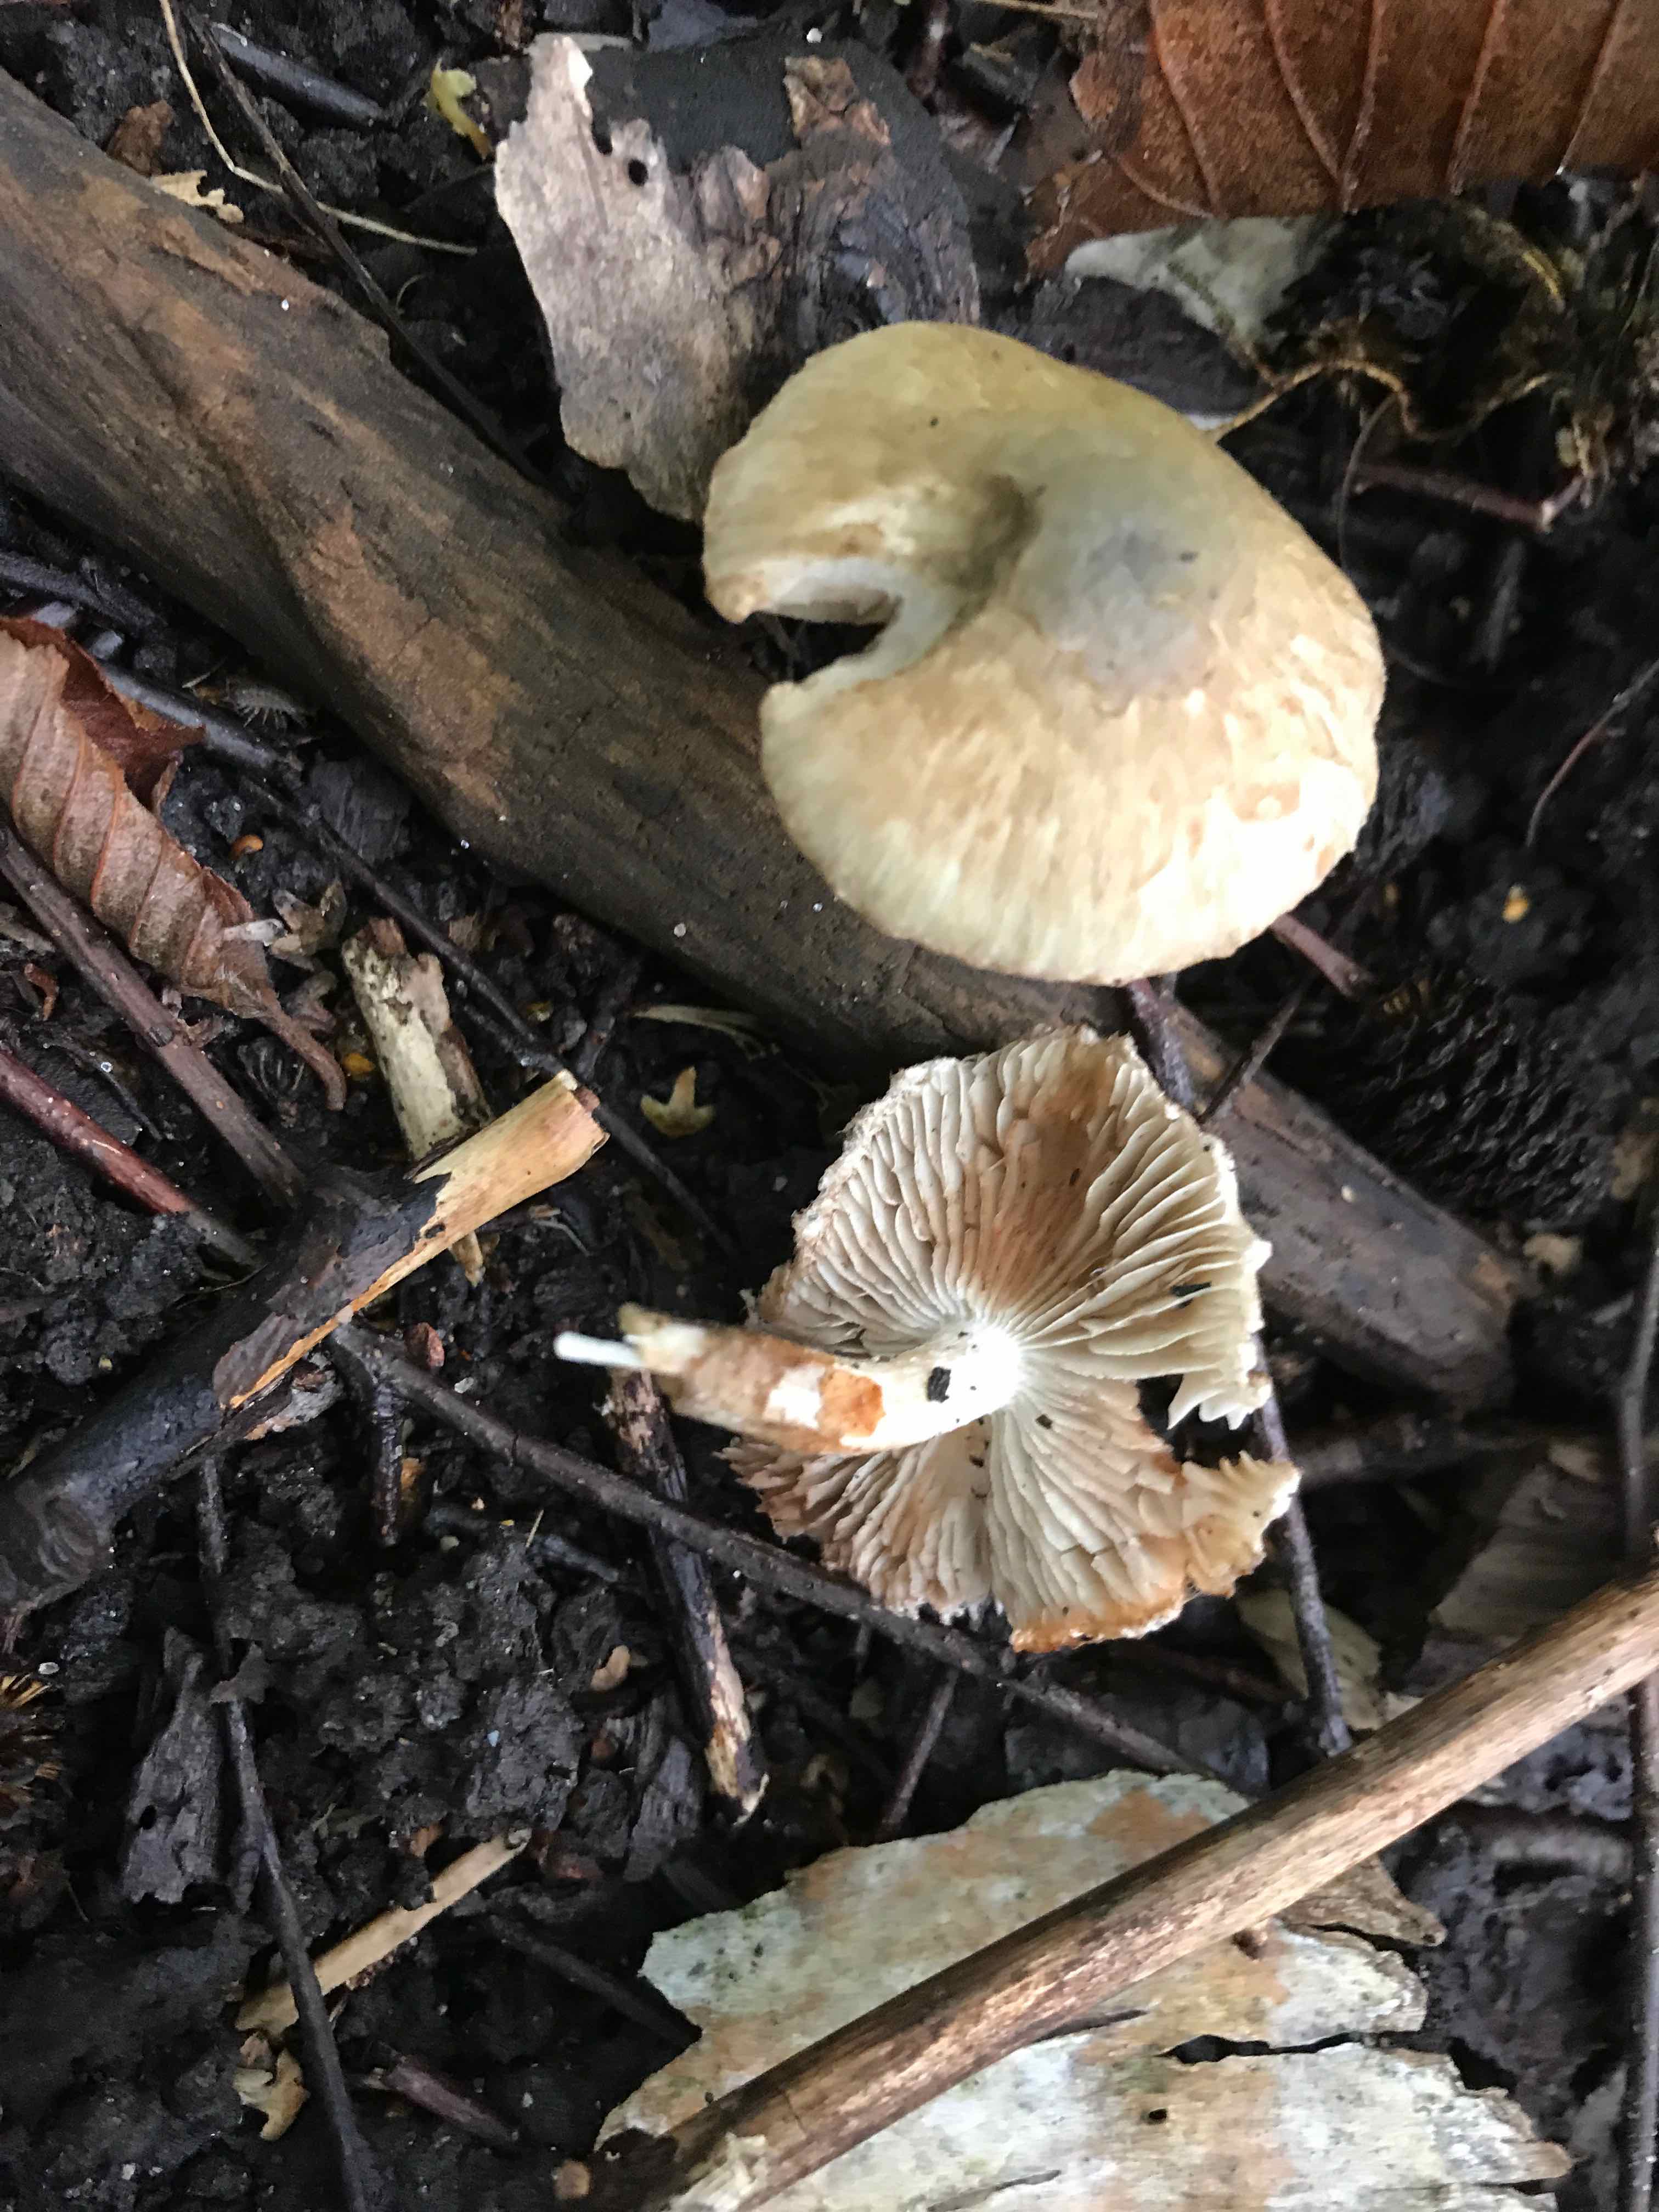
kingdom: Fungi
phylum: Basidiomycota
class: Agaricomycetes
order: Agaricales
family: Inocybaceae
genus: Inocybe
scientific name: Inocybe corydalina
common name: grønpuklet trævlhat
